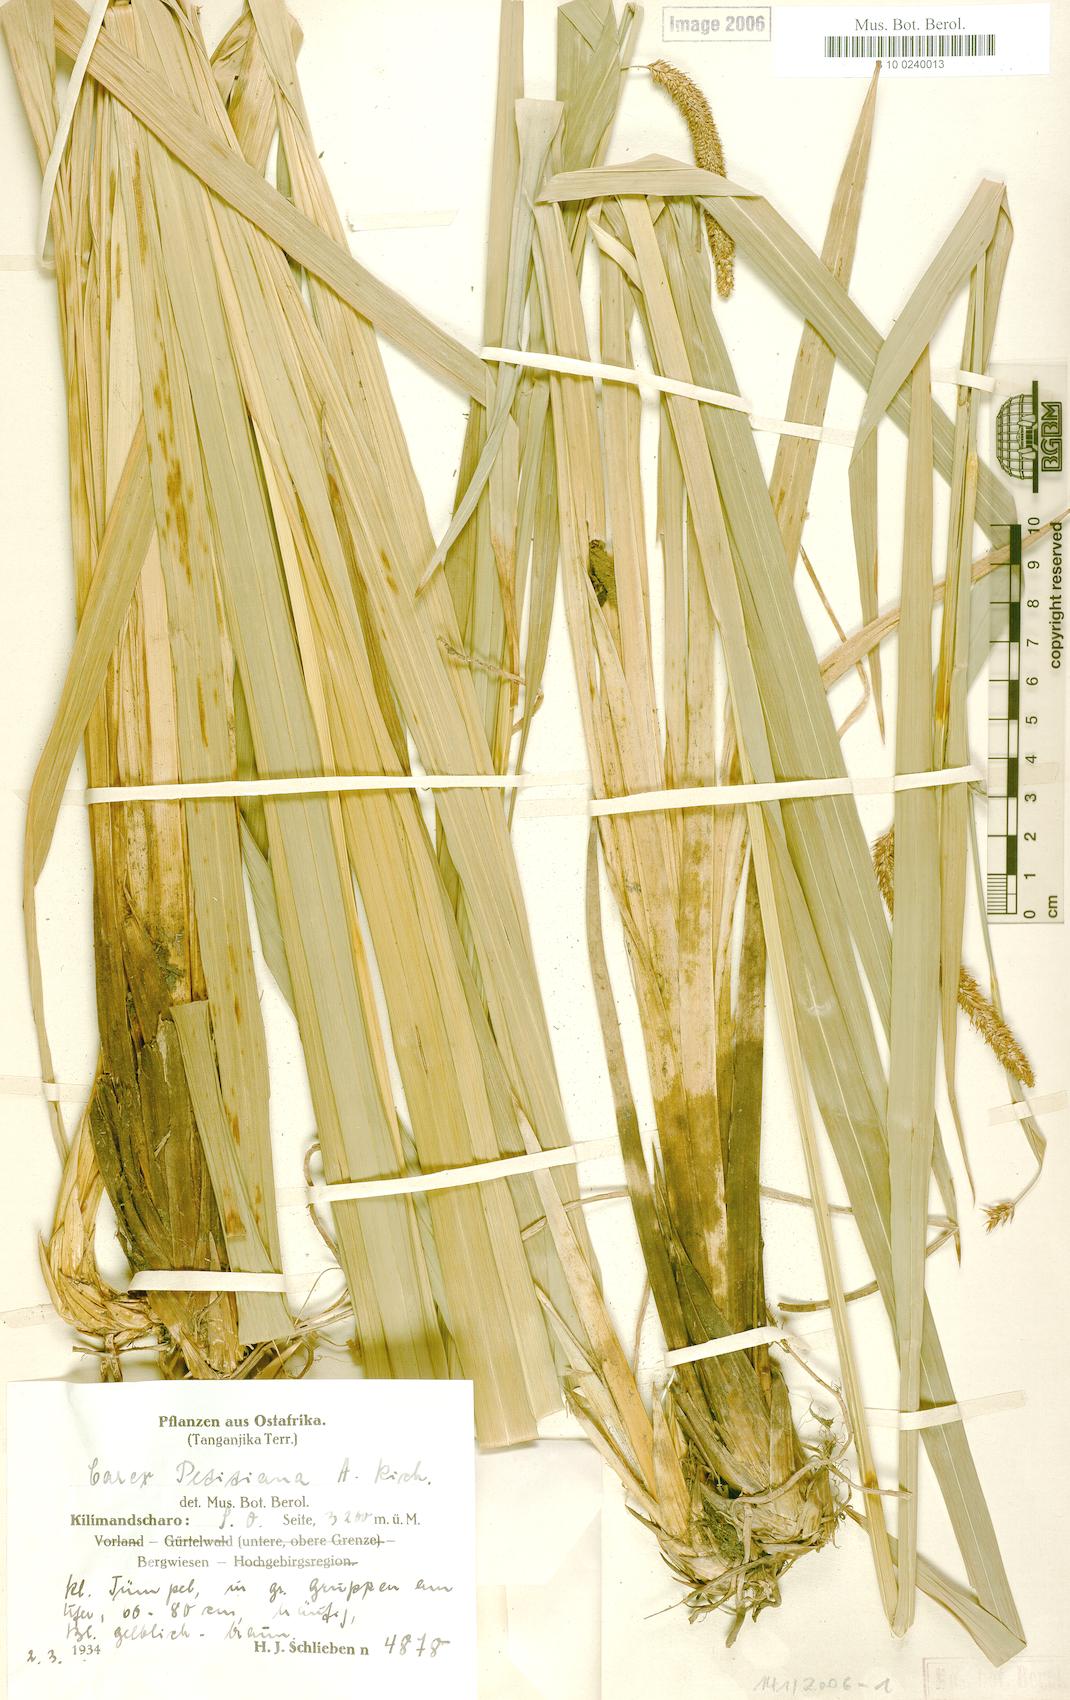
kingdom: Plantae
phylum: Tracheophyta
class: Liliopsida
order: Poales
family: Cyperaceae
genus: Carex
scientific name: Carex petitiana
